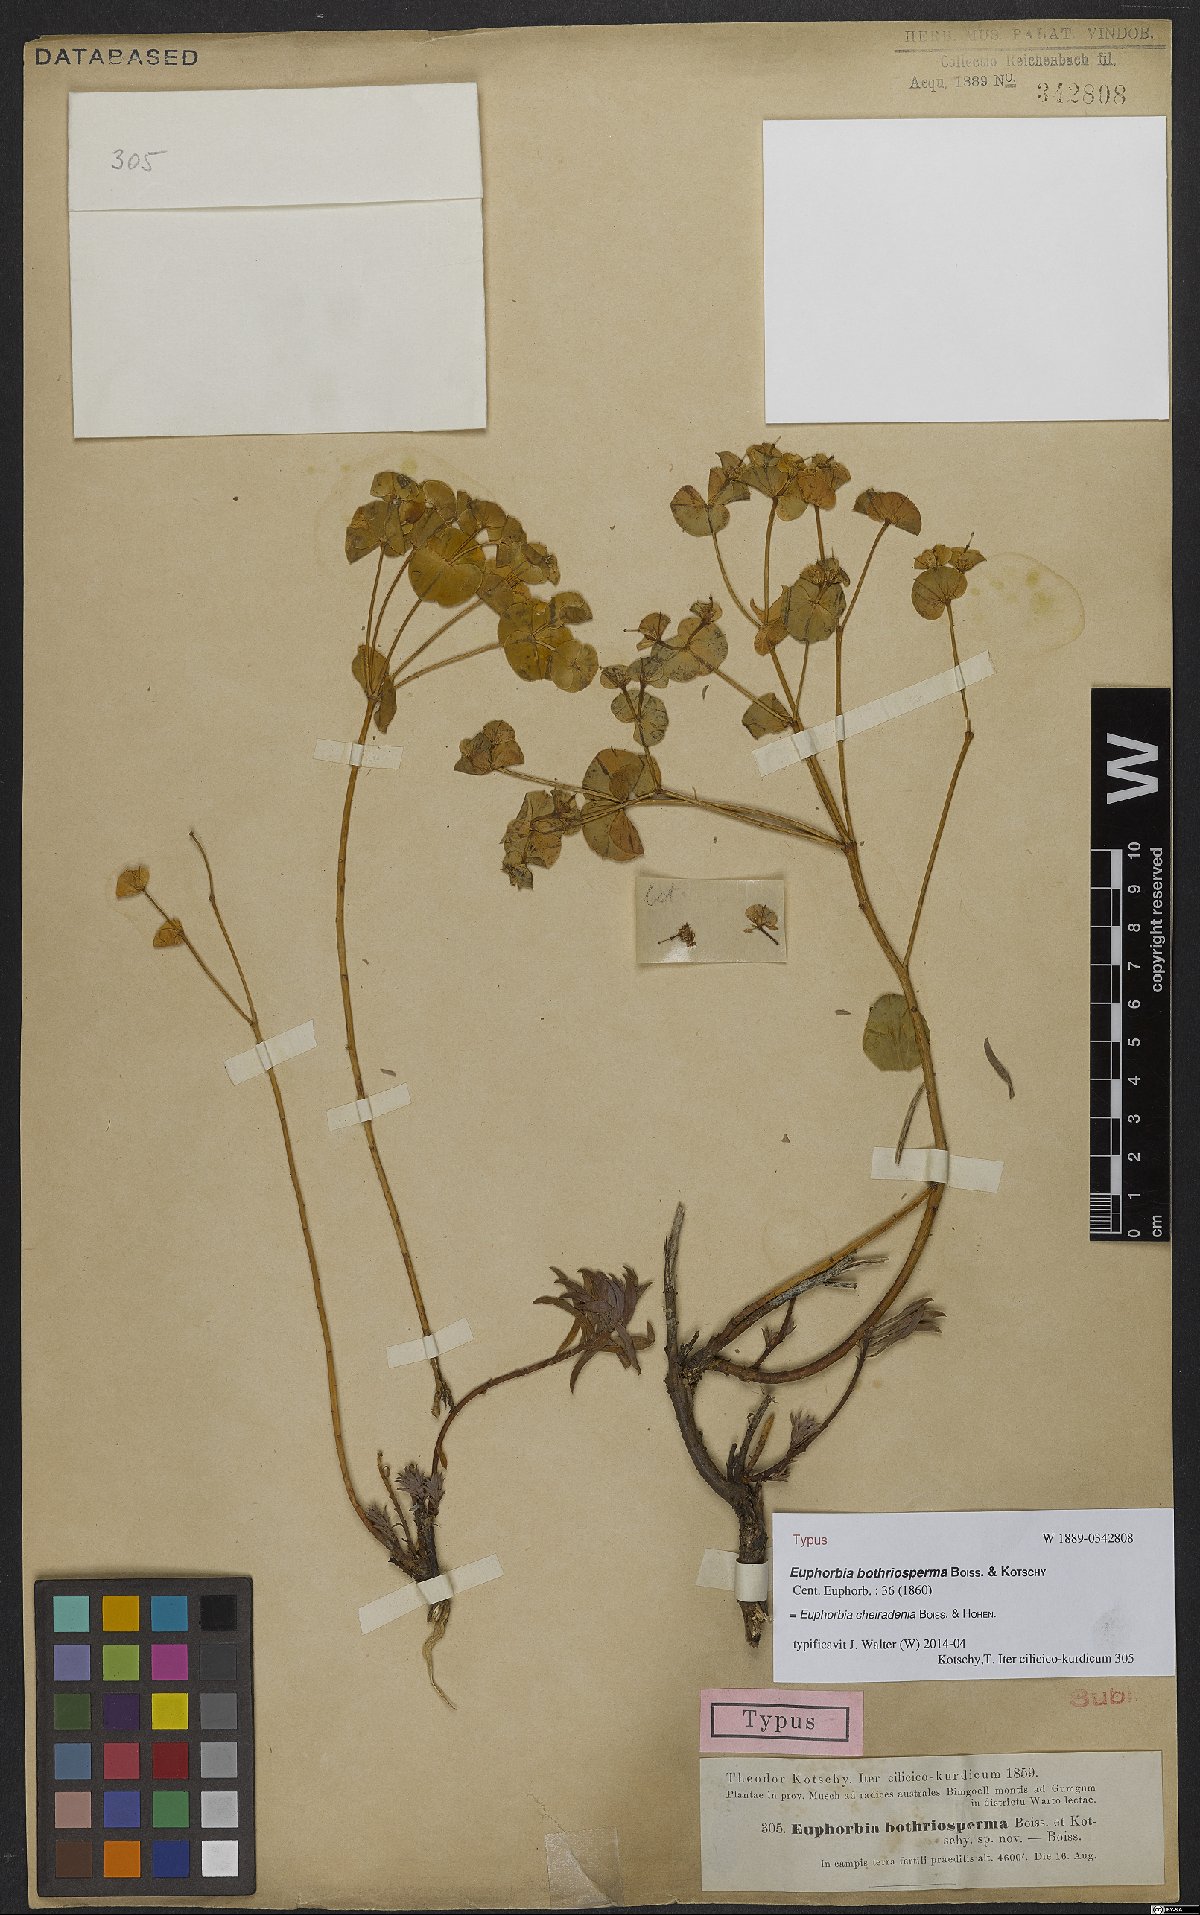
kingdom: Plantae
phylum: Tracheophyta
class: Magnoliopsida
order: Malpighiales
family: Euphorbiaceae
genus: Euphorbia
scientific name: Euphorbia cheiradenia
